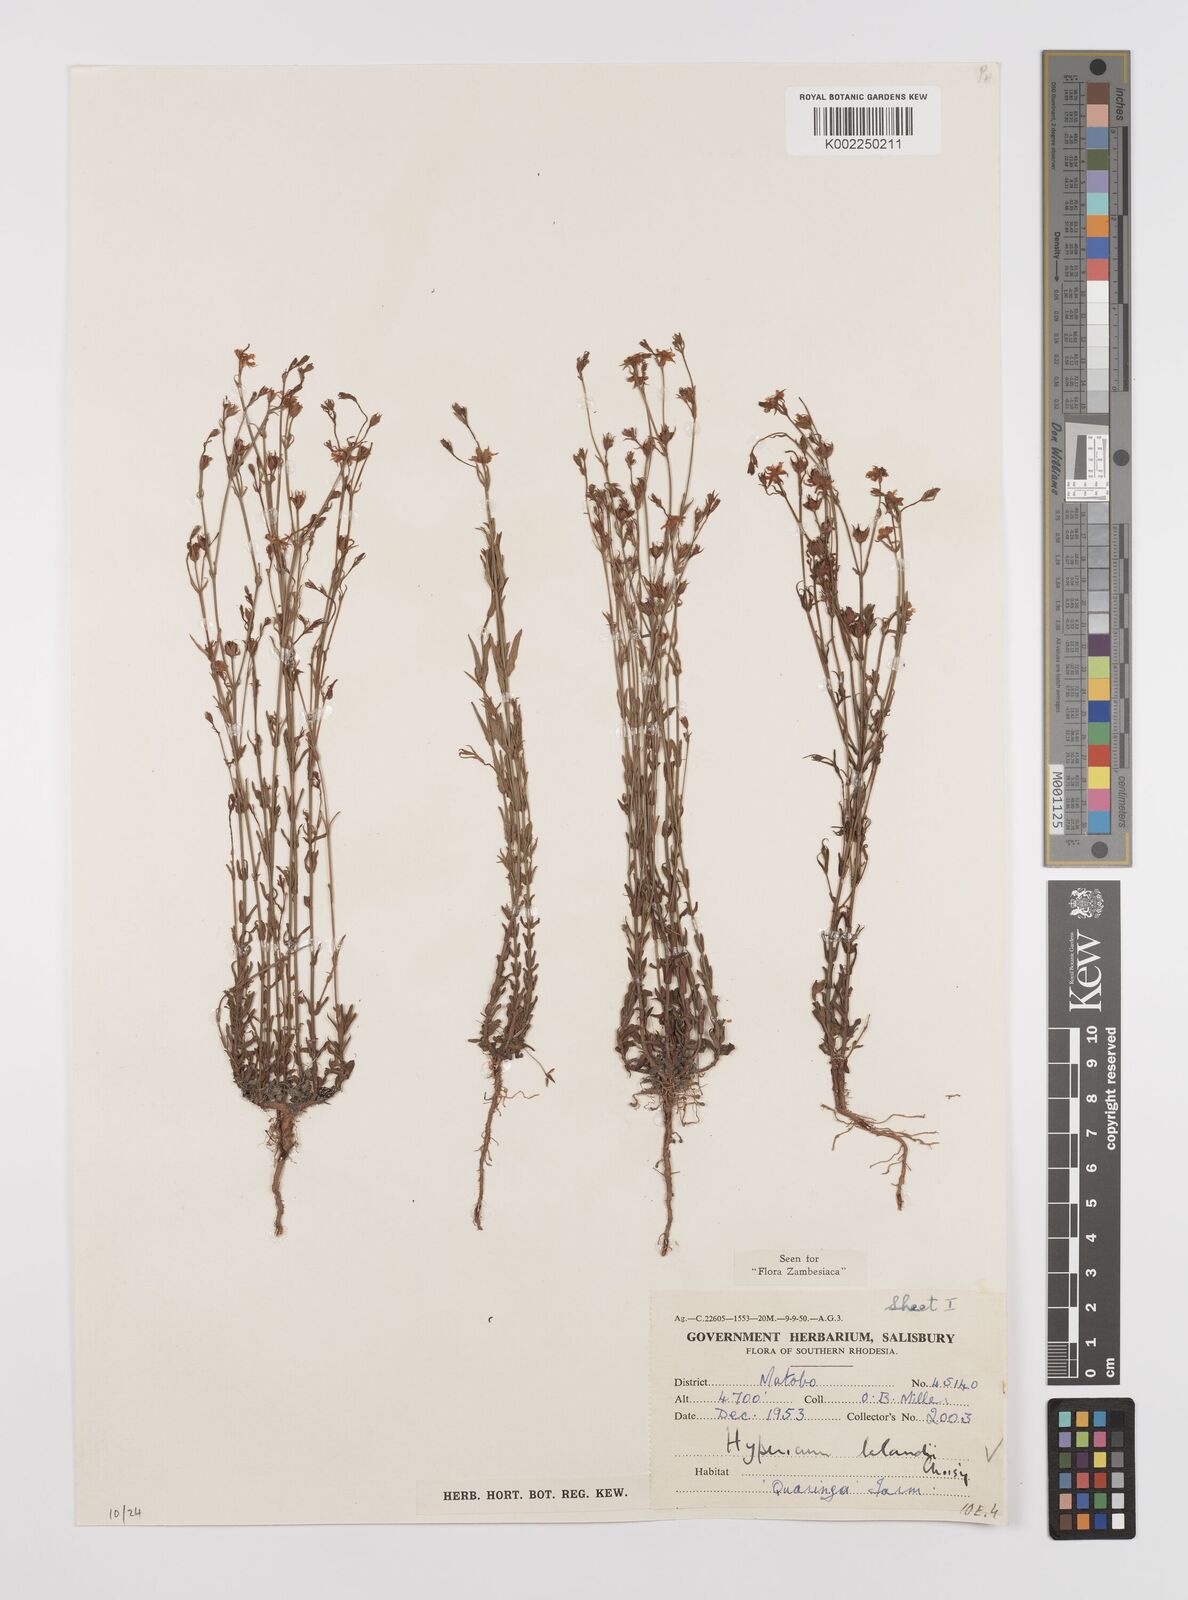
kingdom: Plantae
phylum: Tracheophyta
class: Magnoliopsida
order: Malpighiales
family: Hypericaceae
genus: Hypericum
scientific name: Hypericum lalandii
